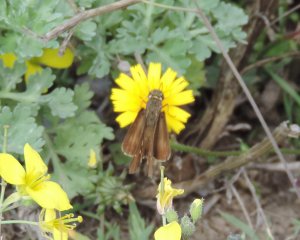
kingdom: Animalia
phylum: Arthropoda
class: Insecta
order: Lepidoptera
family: Hesperiidae
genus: Panoquina
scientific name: Panoquina ocola
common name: Ocola Skipper
